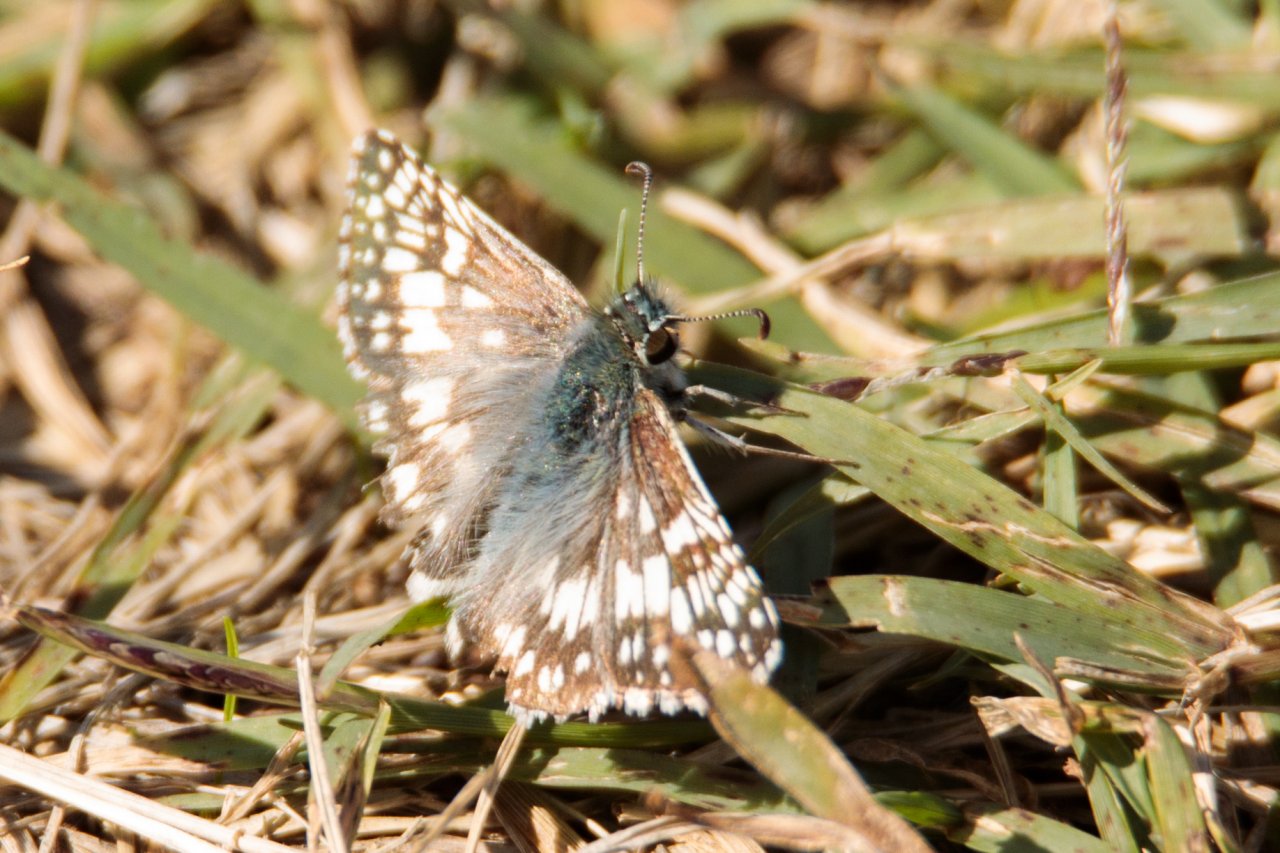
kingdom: Animalia
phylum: Arthropoda
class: Insecta
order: Lepidoptera
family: Hesperiidae
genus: Pyrgus
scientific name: Pyrgus communis
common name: Common Checkered-Skipper
